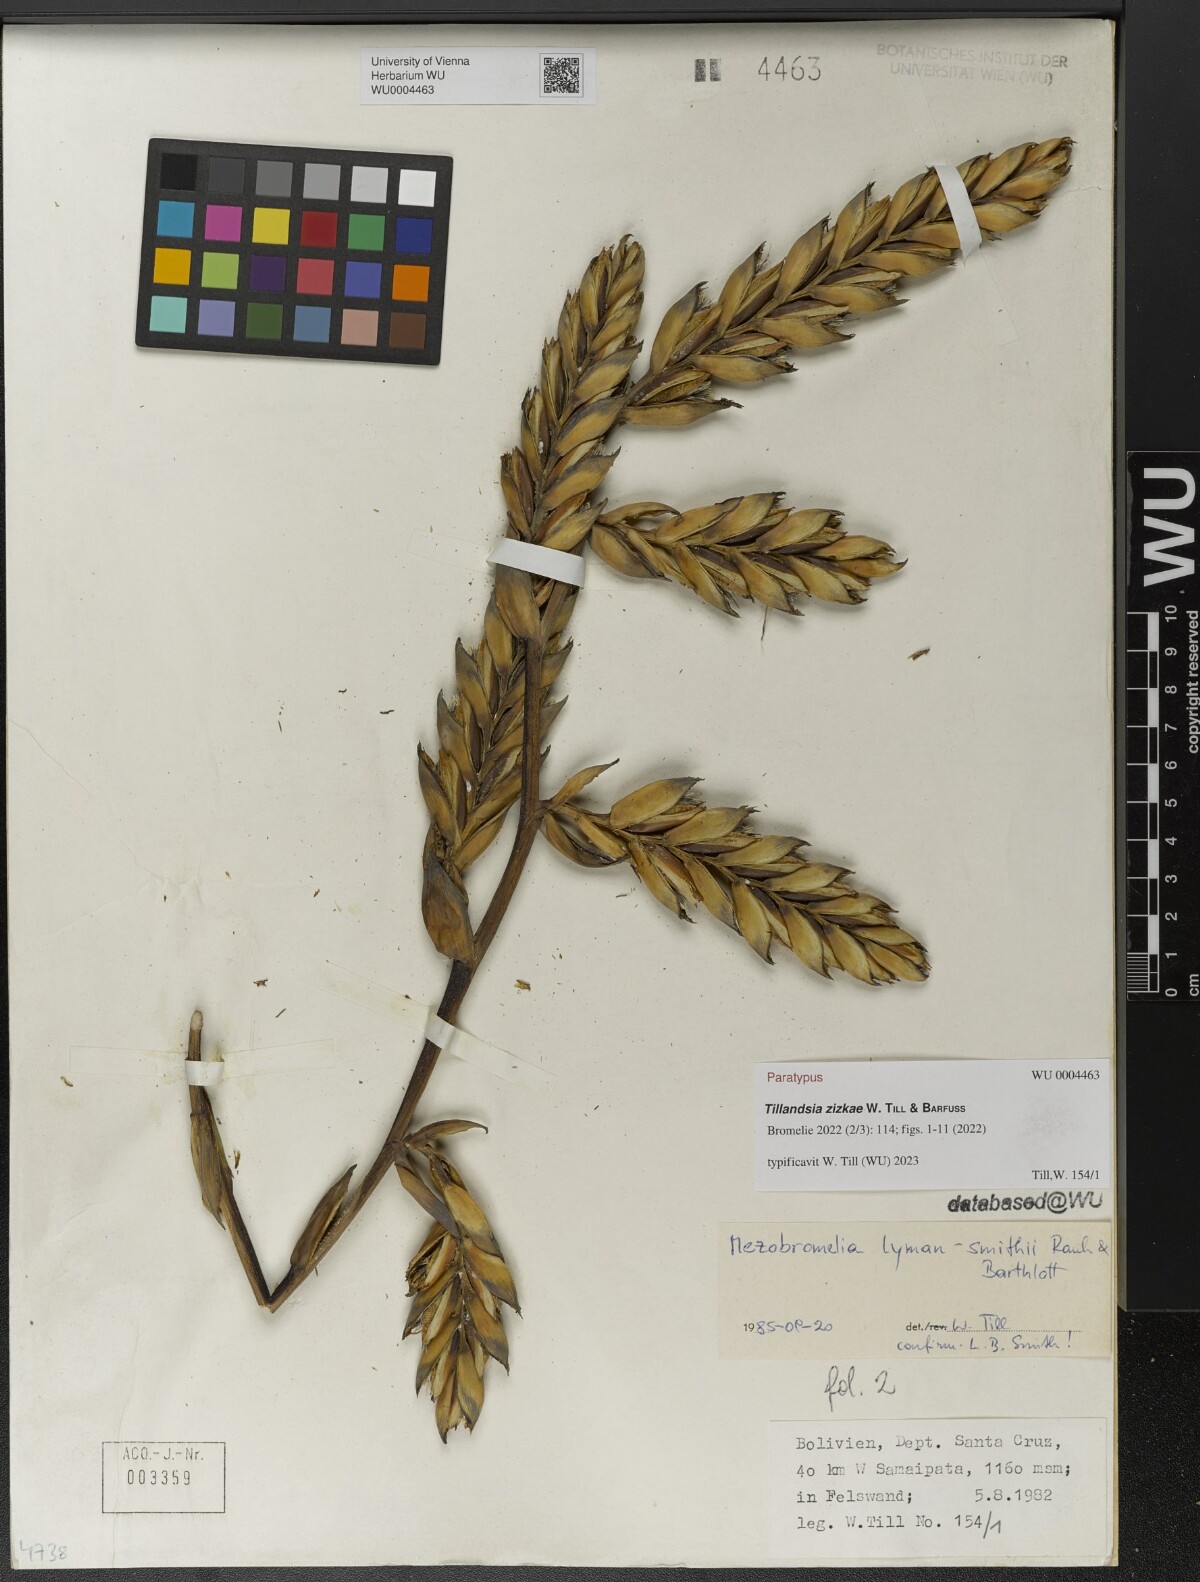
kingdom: Plantae
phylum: Tracheophyta
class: Liliopsida
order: Poales
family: Bromeliaceae
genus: Tillandsia
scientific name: Tillandsia
